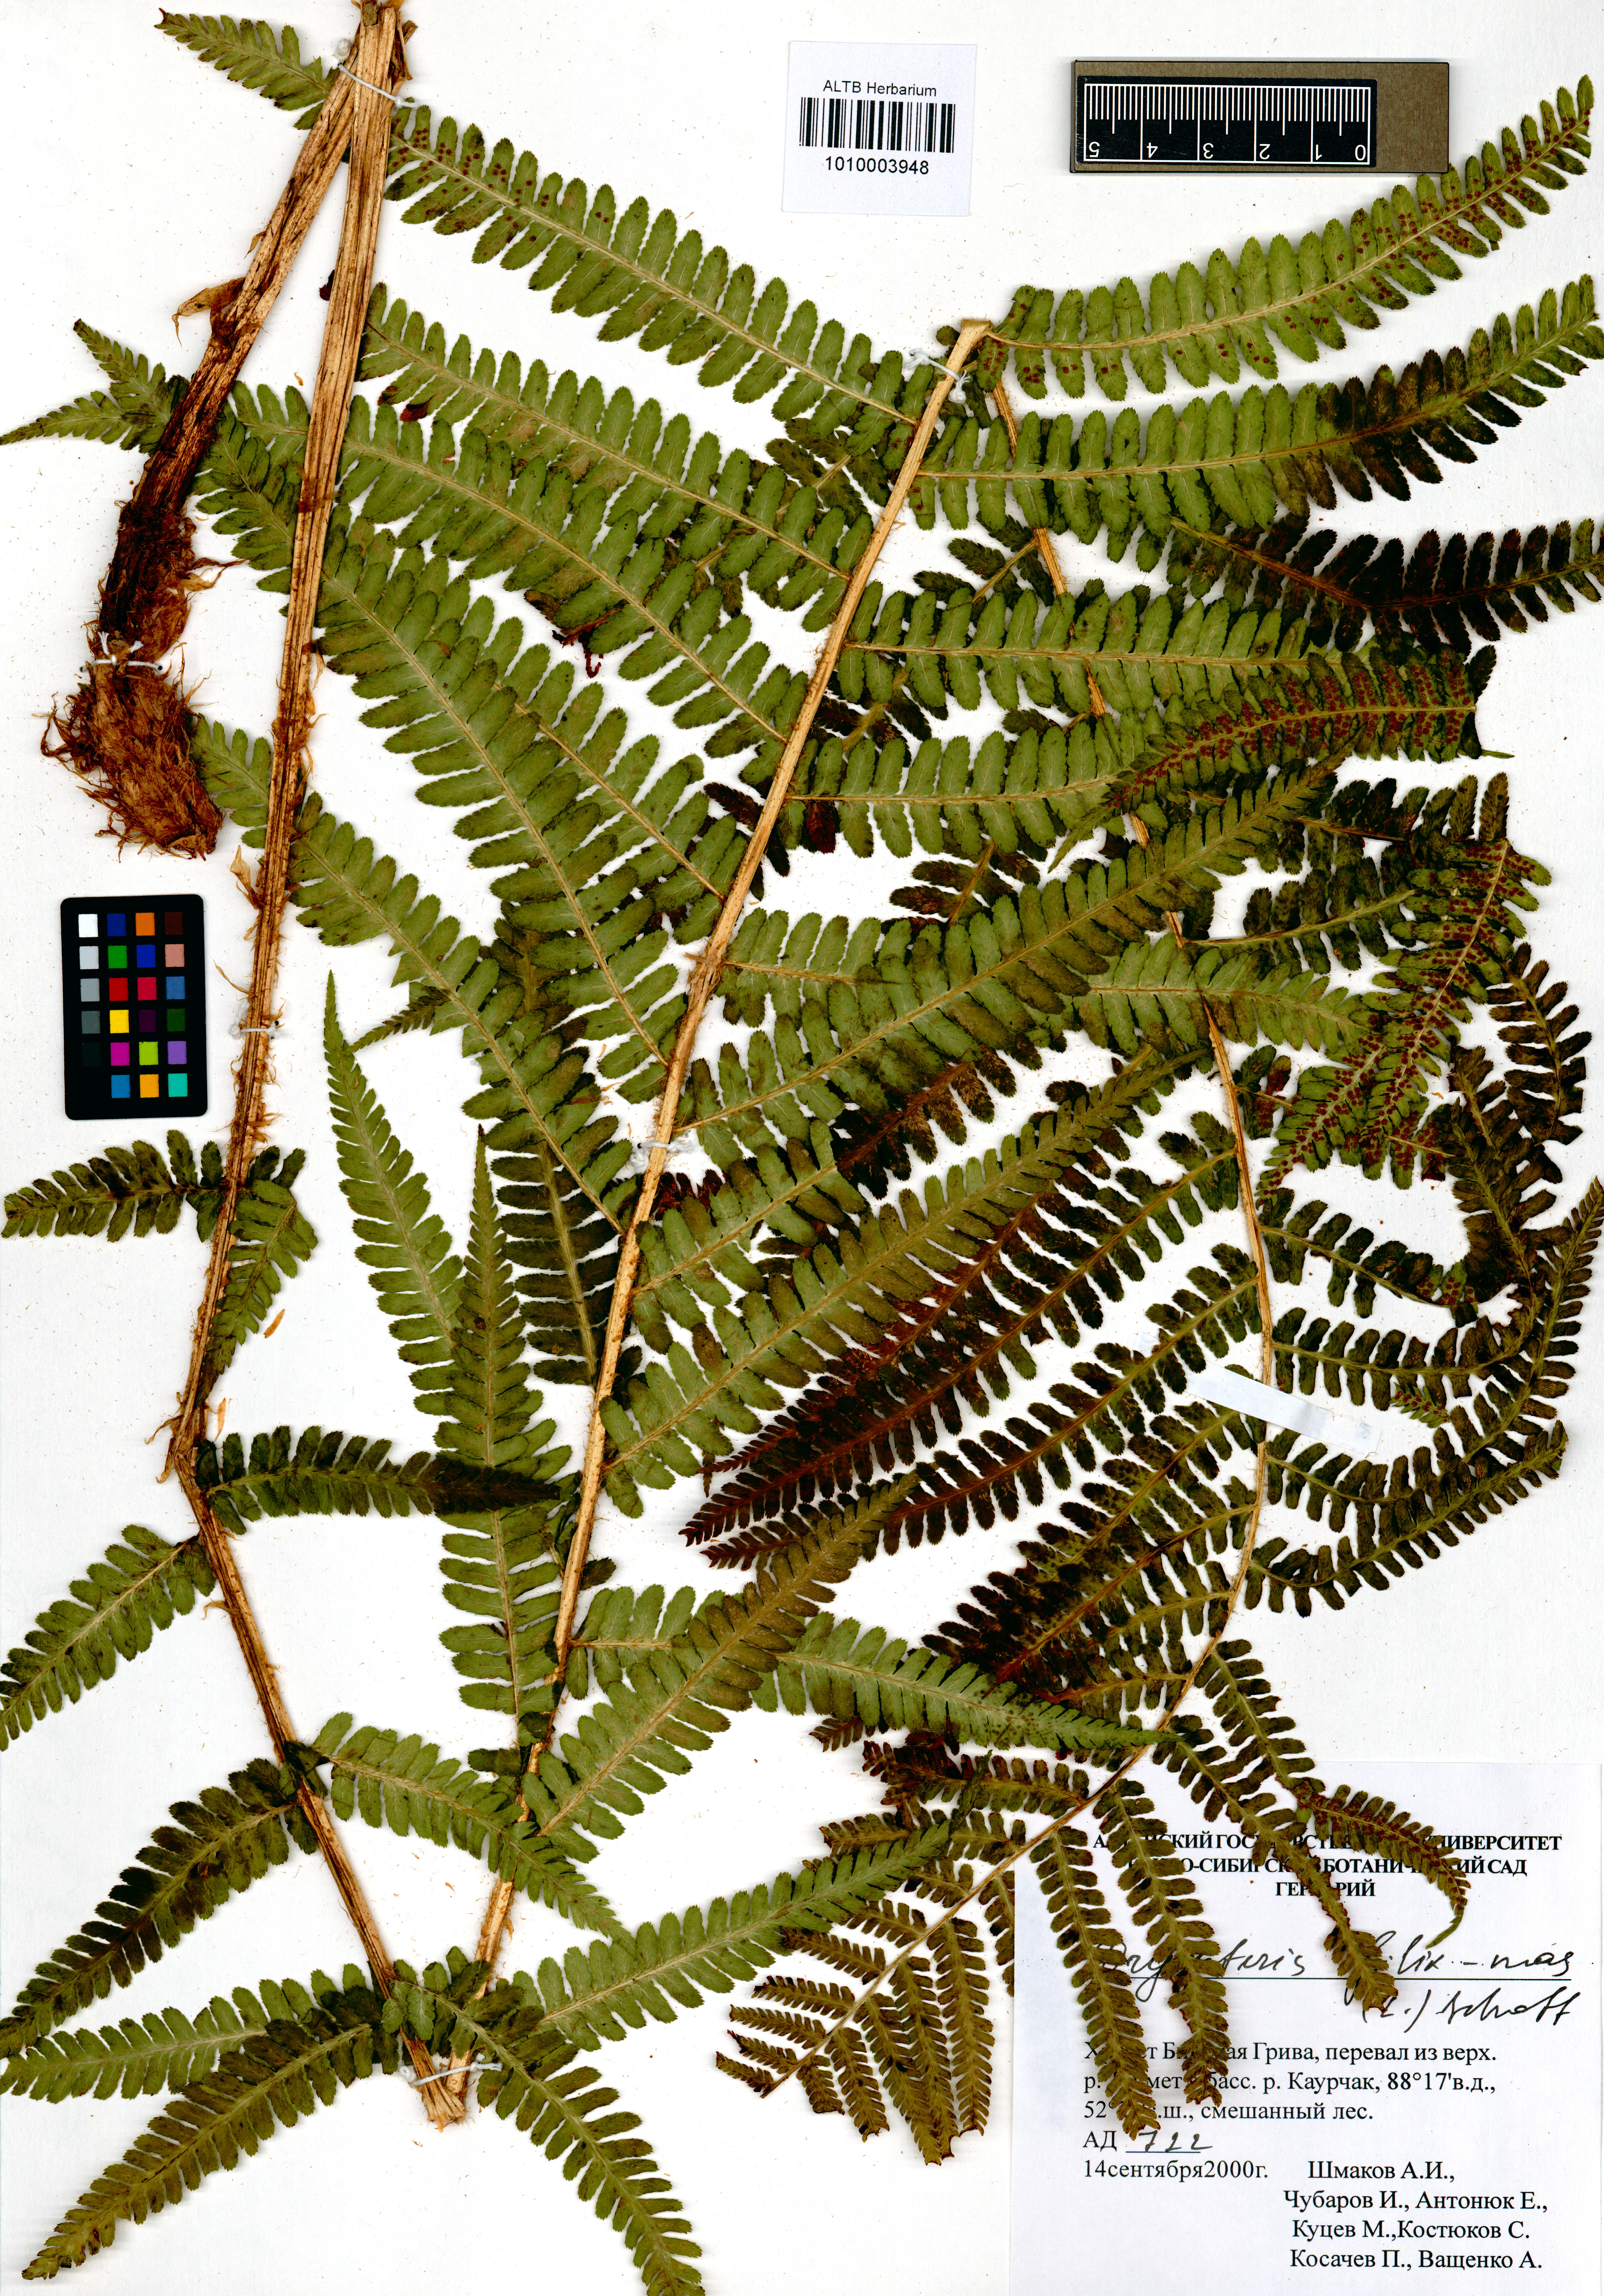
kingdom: Plantae
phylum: Tracheophyta
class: Polypodiopsida
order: Polypodiales
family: Dryopteridaceae
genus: Dryopteris
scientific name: Dryopteris filix-mas
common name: Male fern
